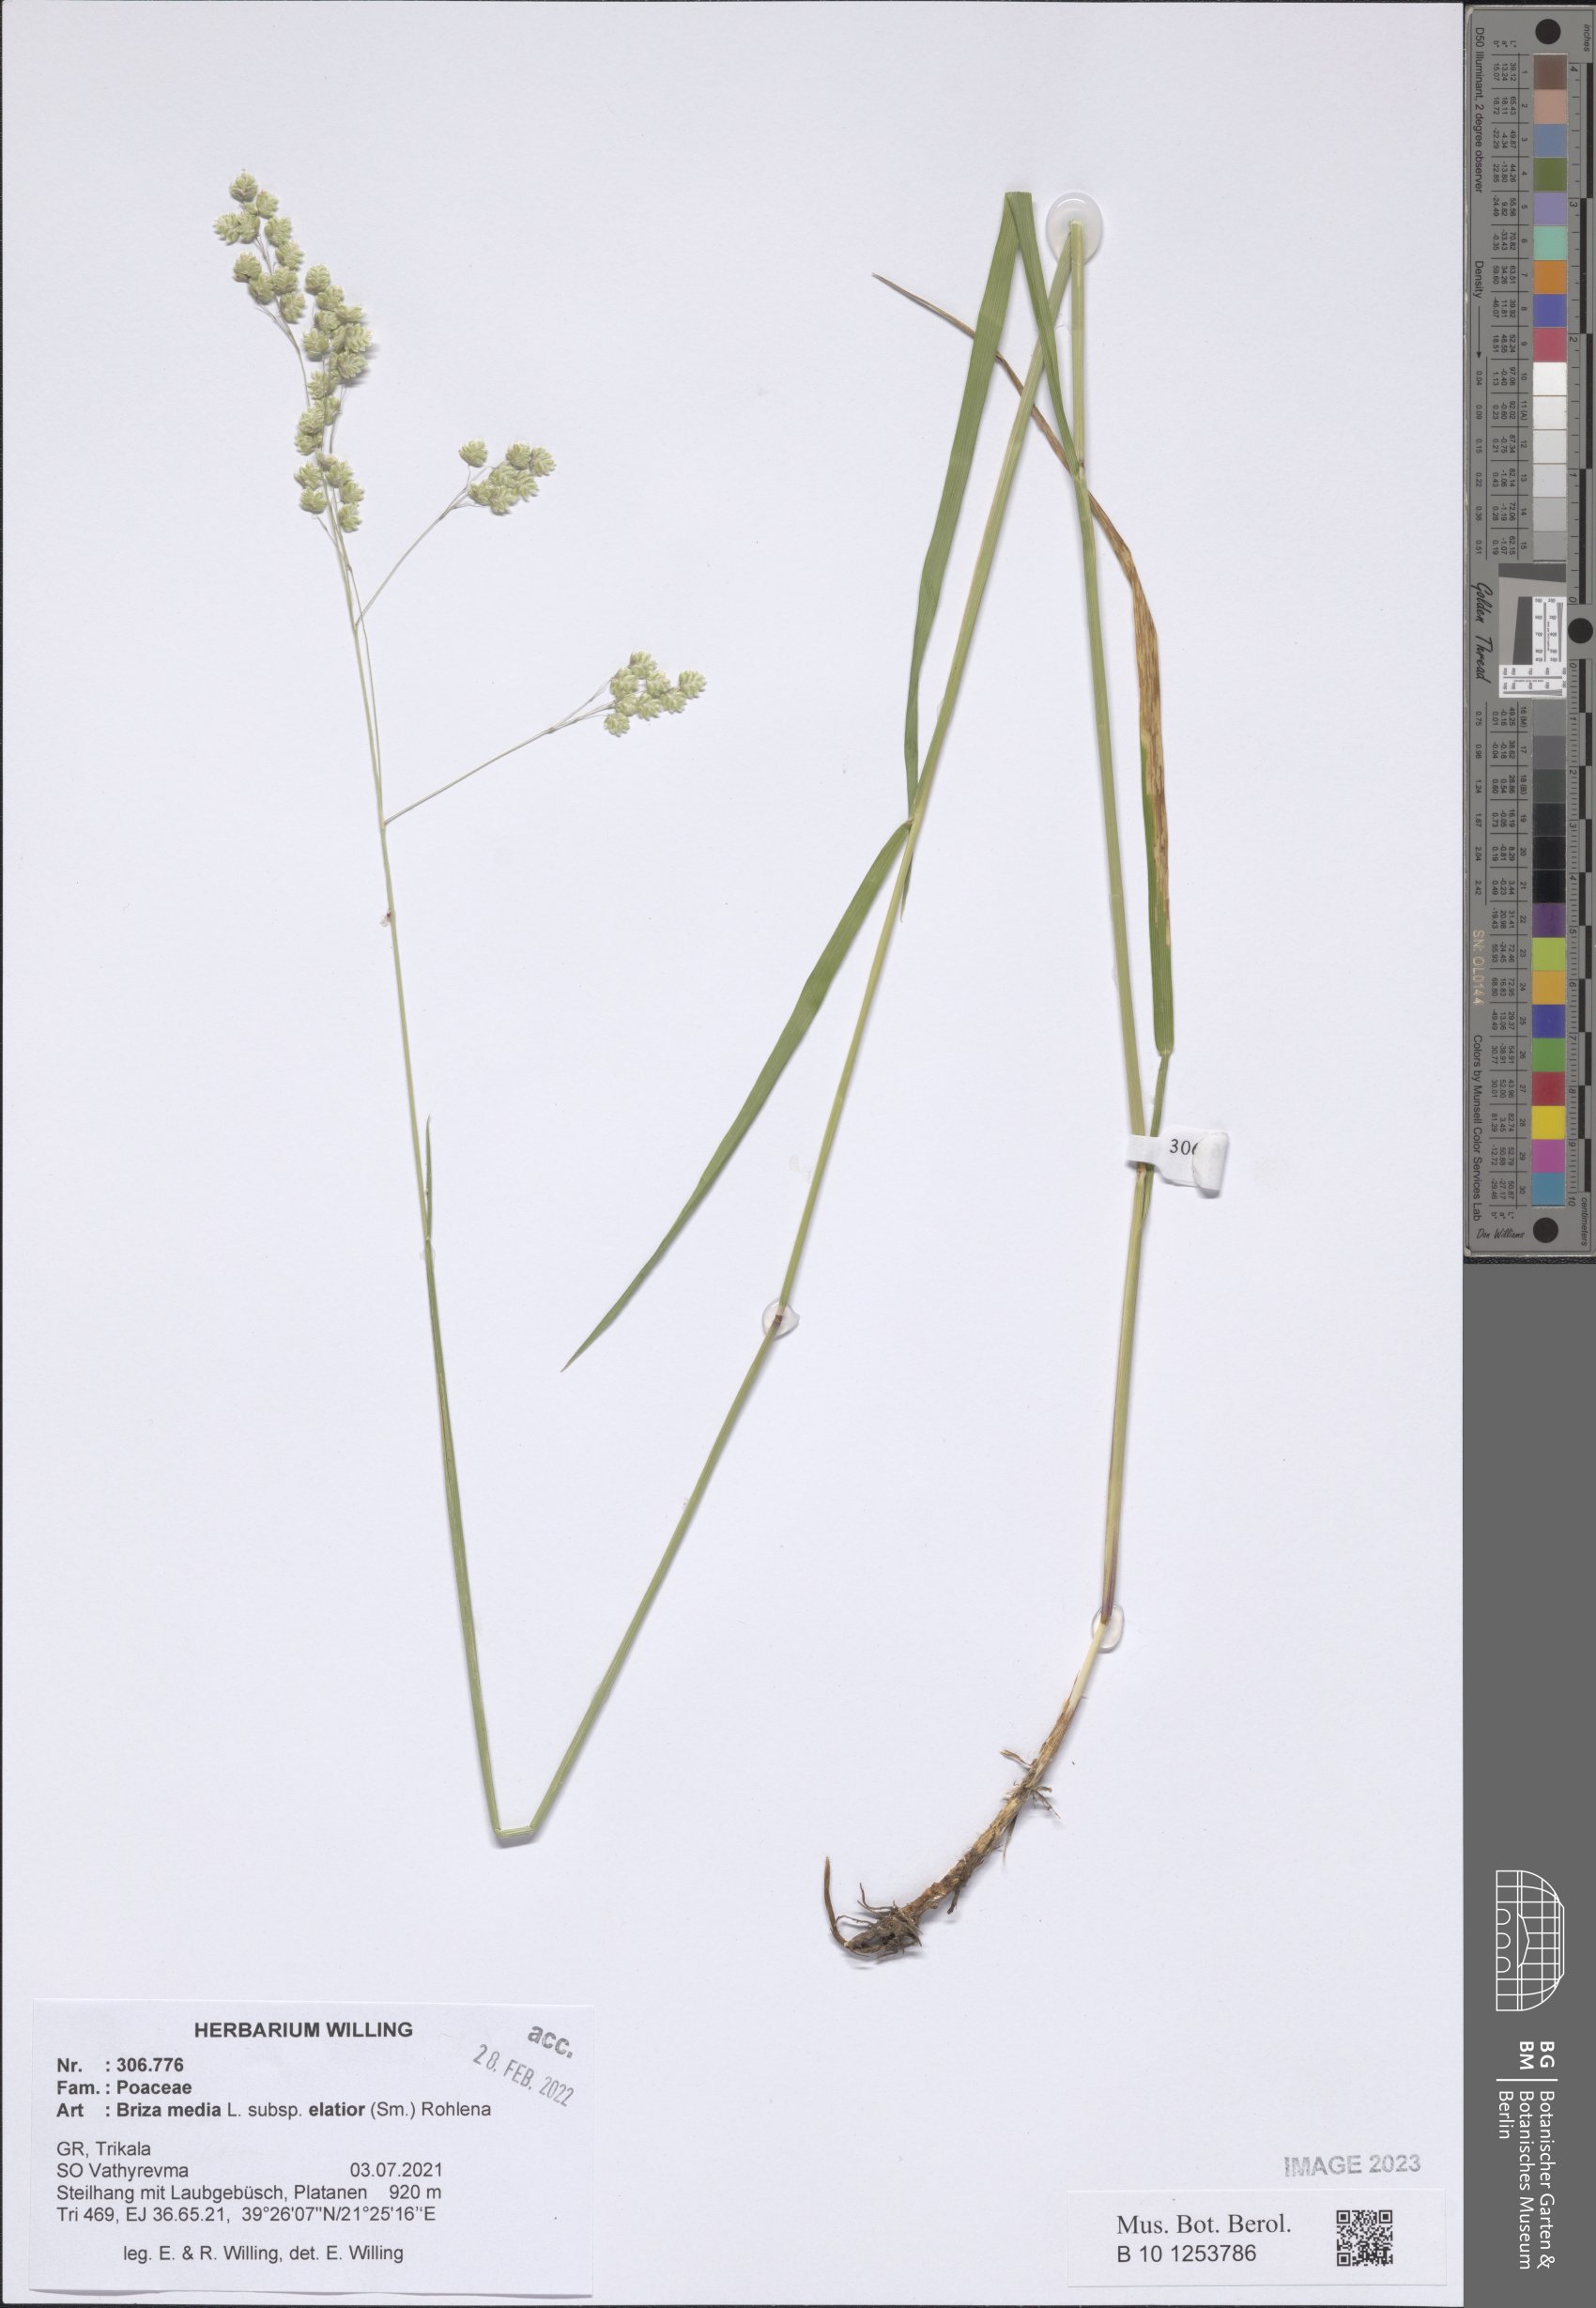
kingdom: Plantae
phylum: Tracheophyta
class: Liliopsida
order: Poales
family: Poaceae
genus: Briza
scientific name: Briza media
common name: Quaking grass
